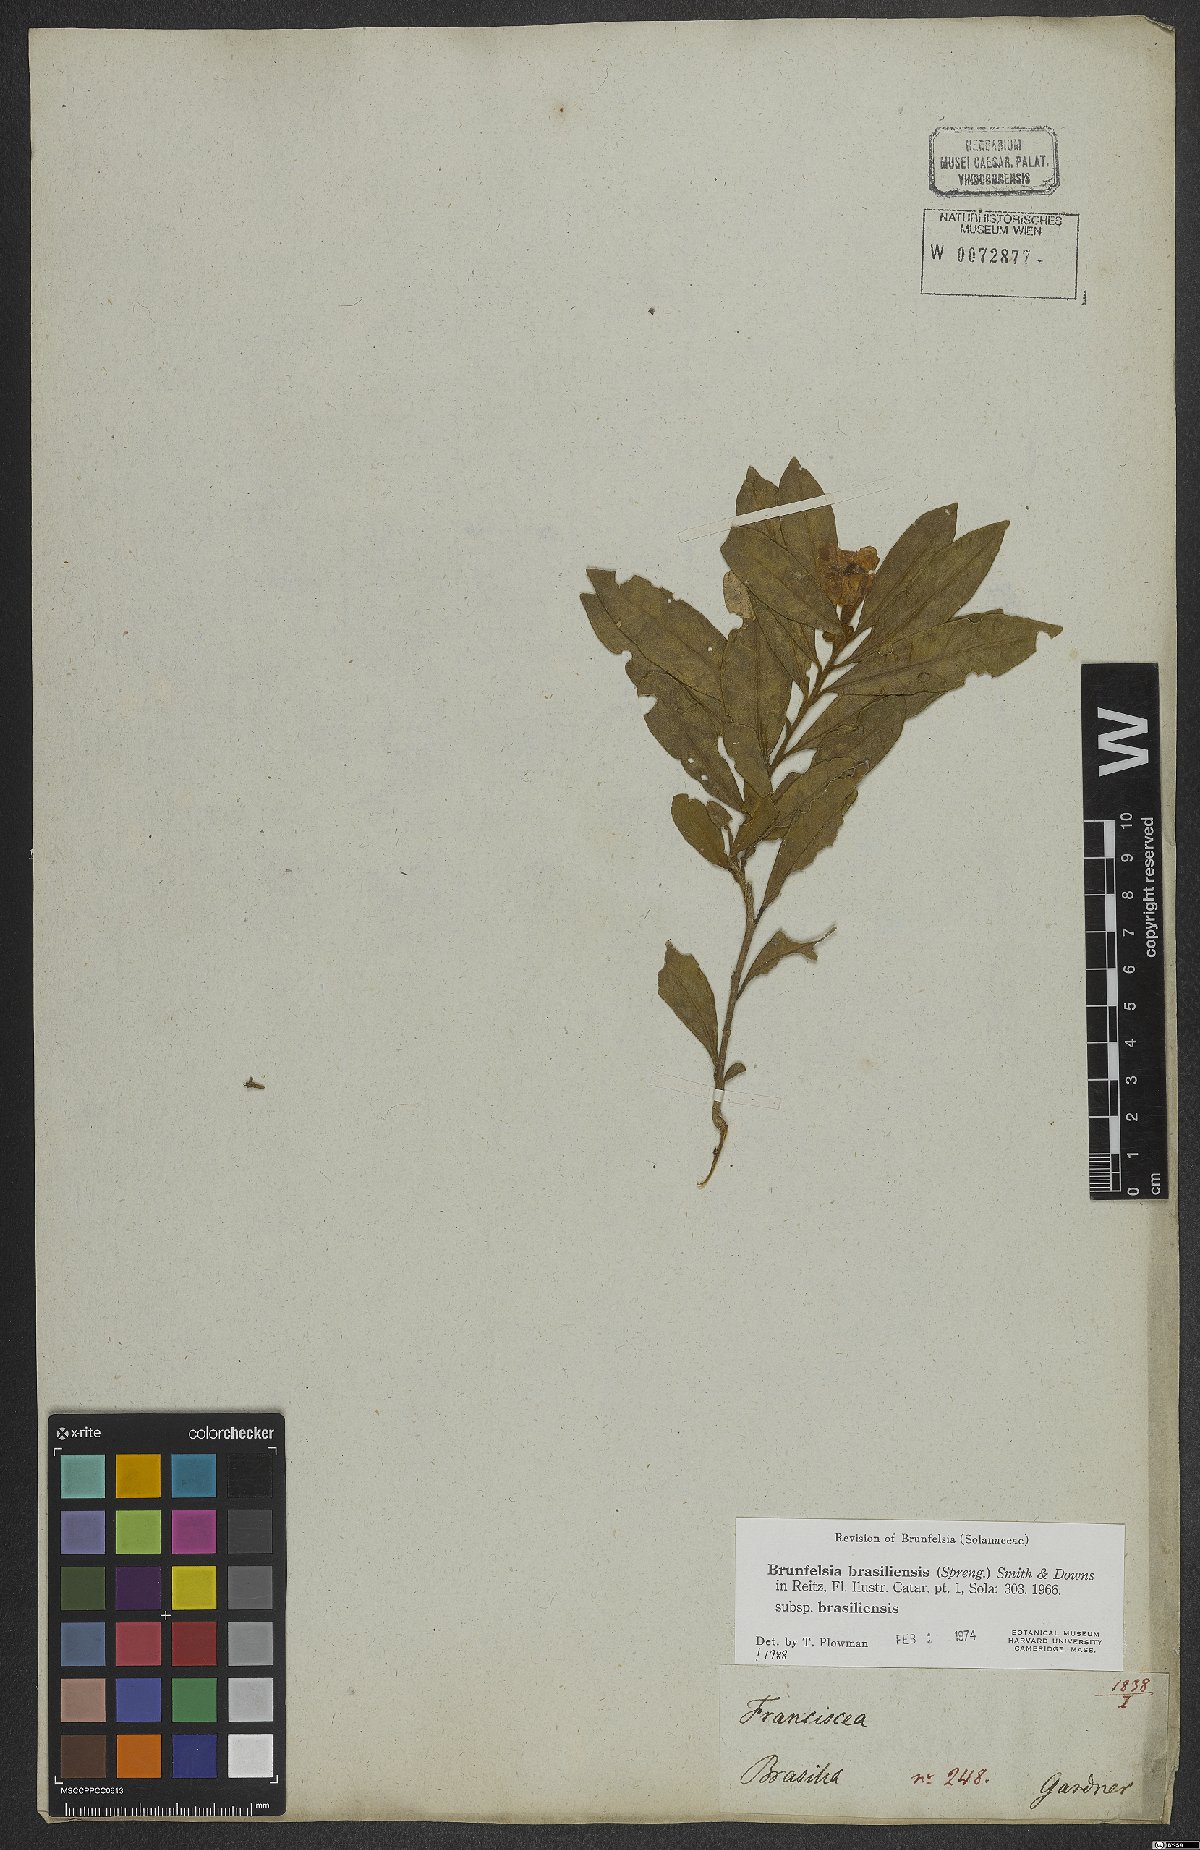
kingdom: Plantae
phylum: Tracheophyta
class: Magnoliopsida
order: Solanales
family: Solanaceae
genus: Brunfelsia
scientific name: Brunfelsia brasiliensis
